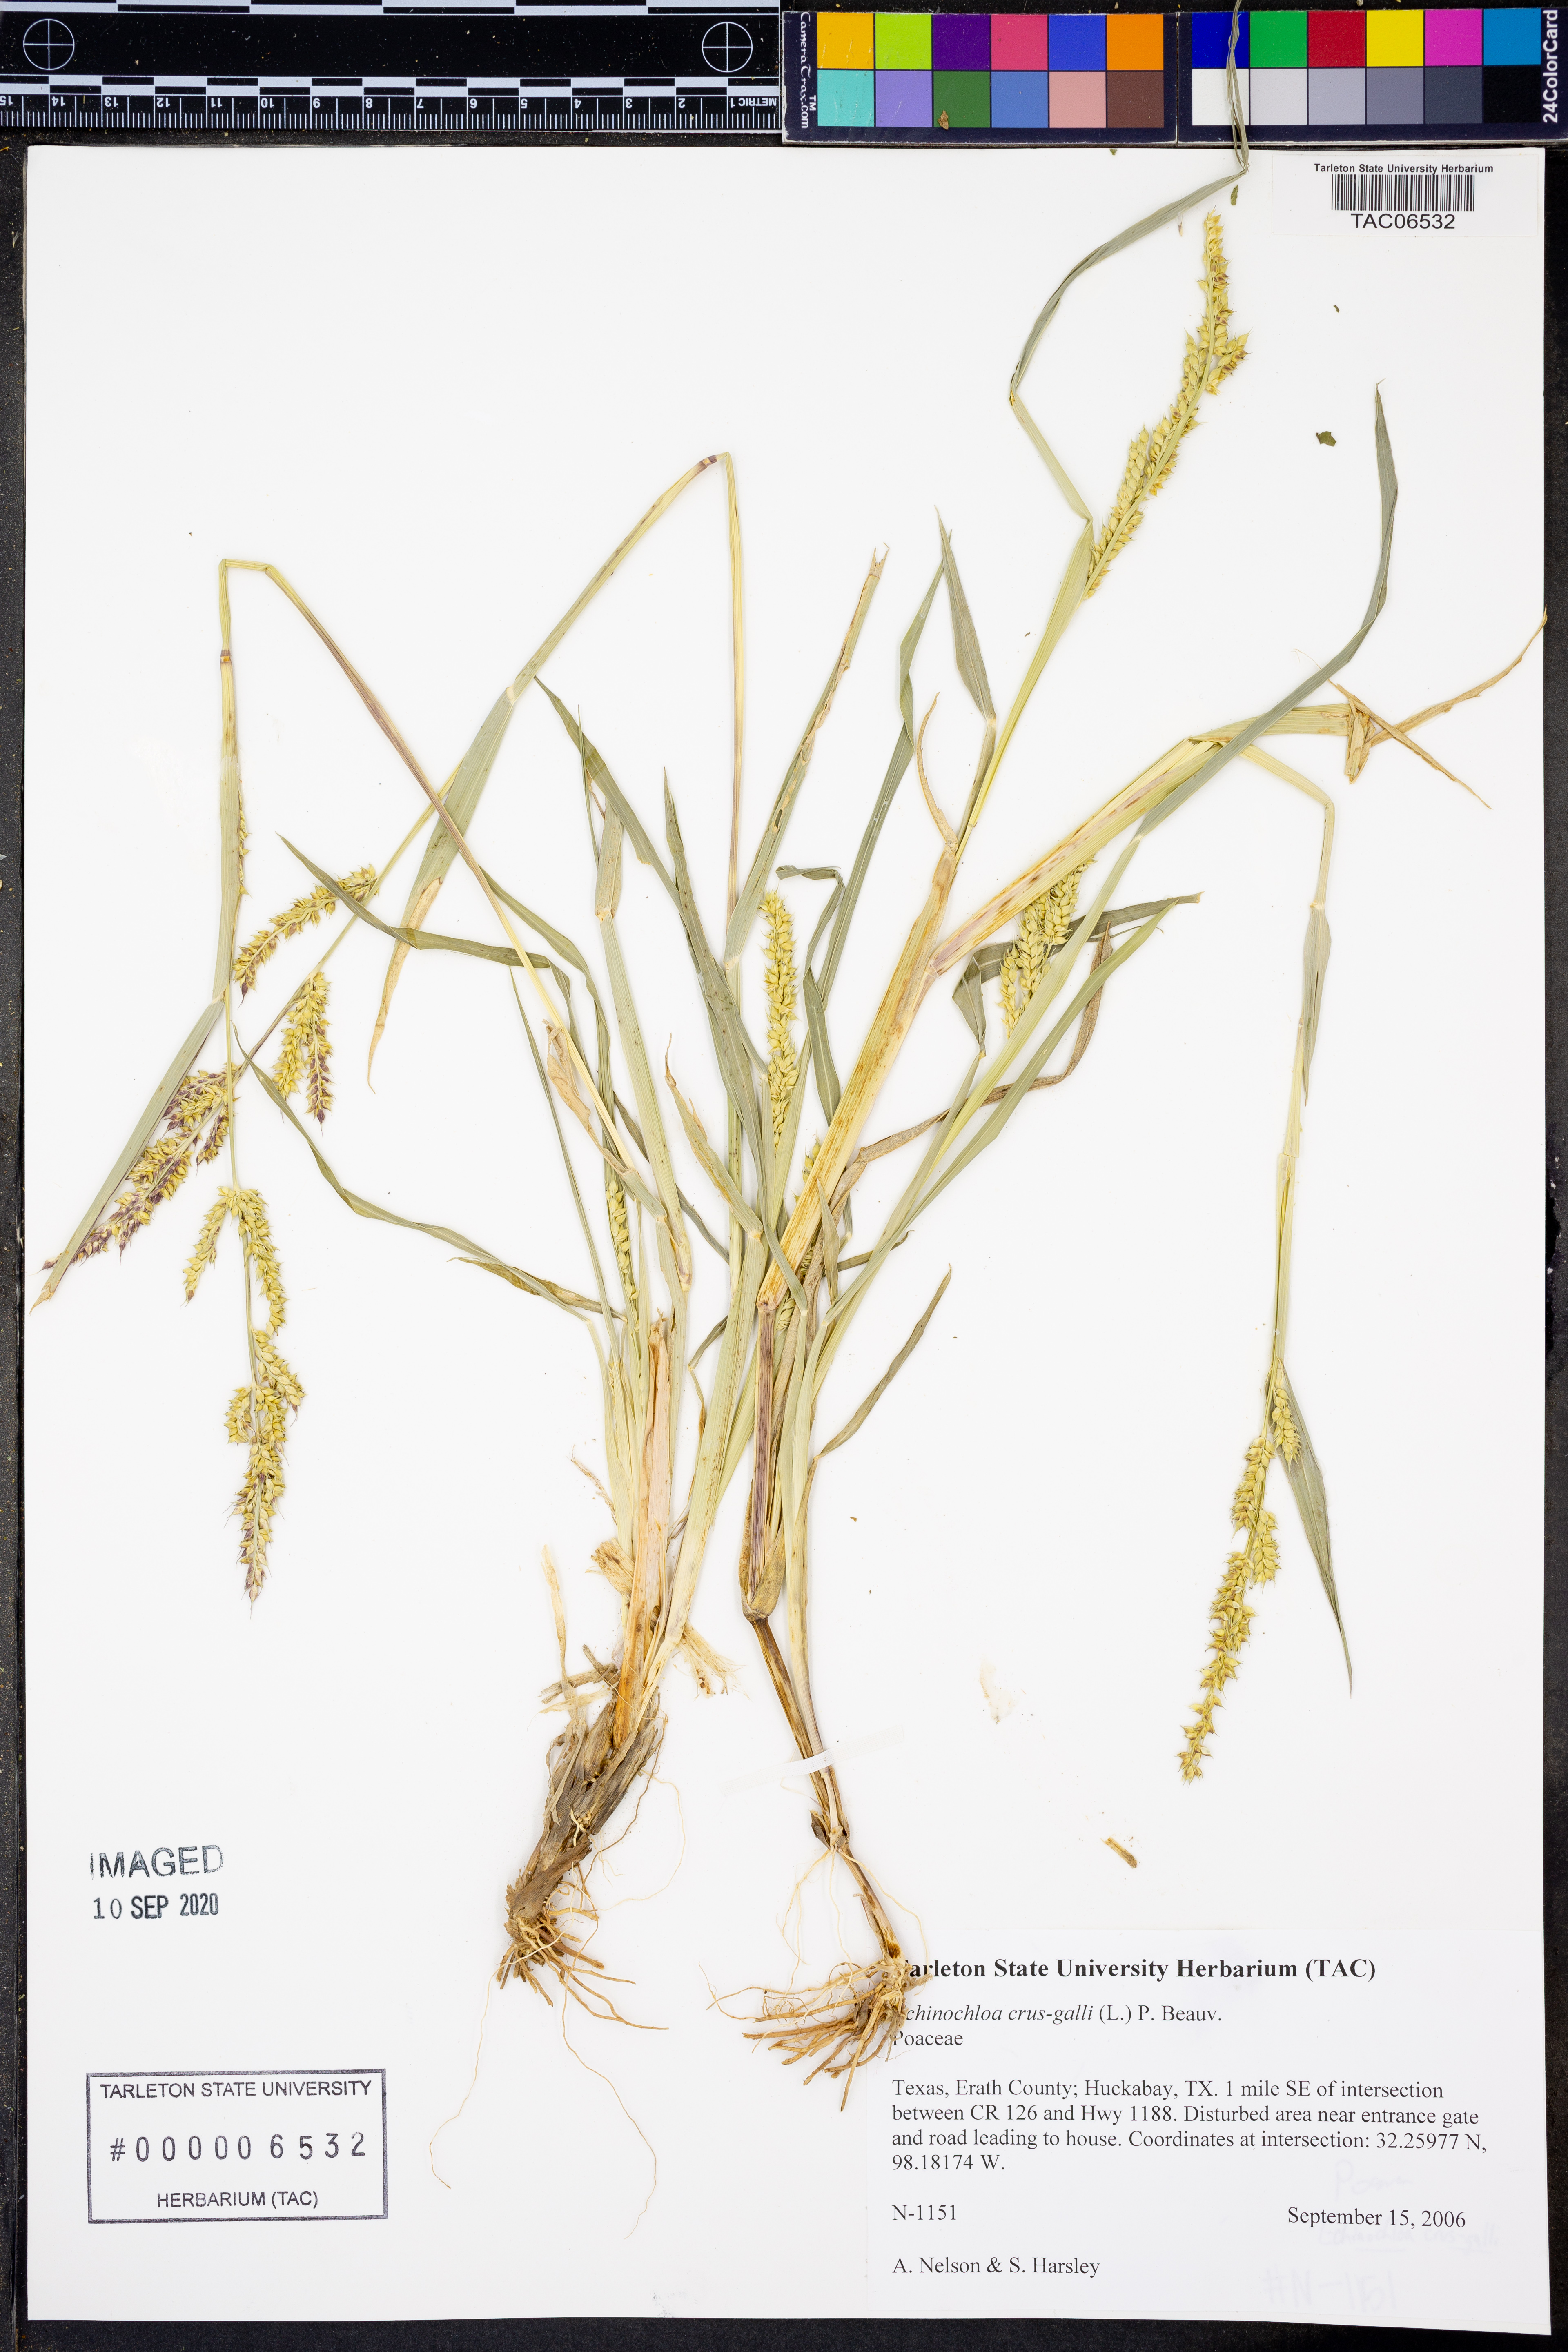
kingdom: Plantae
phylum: Tracheophyta
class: Liliopsida
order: Poales
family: Poaceae
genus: Echinochloa
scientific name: Echinochloa crus-galli
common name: Cockspur
